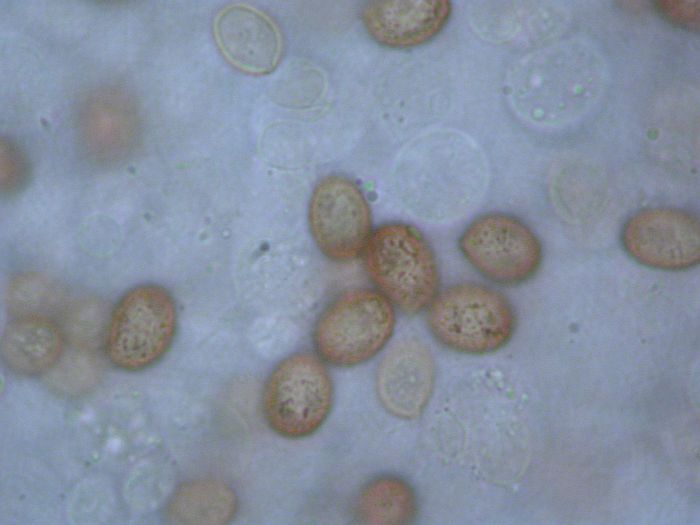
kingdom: Fungi
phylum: Basidiomycota
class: Agaricomycetes
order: Agaricales
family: Cortinariaceae
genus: Cortinarius
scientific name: Cortinarius
